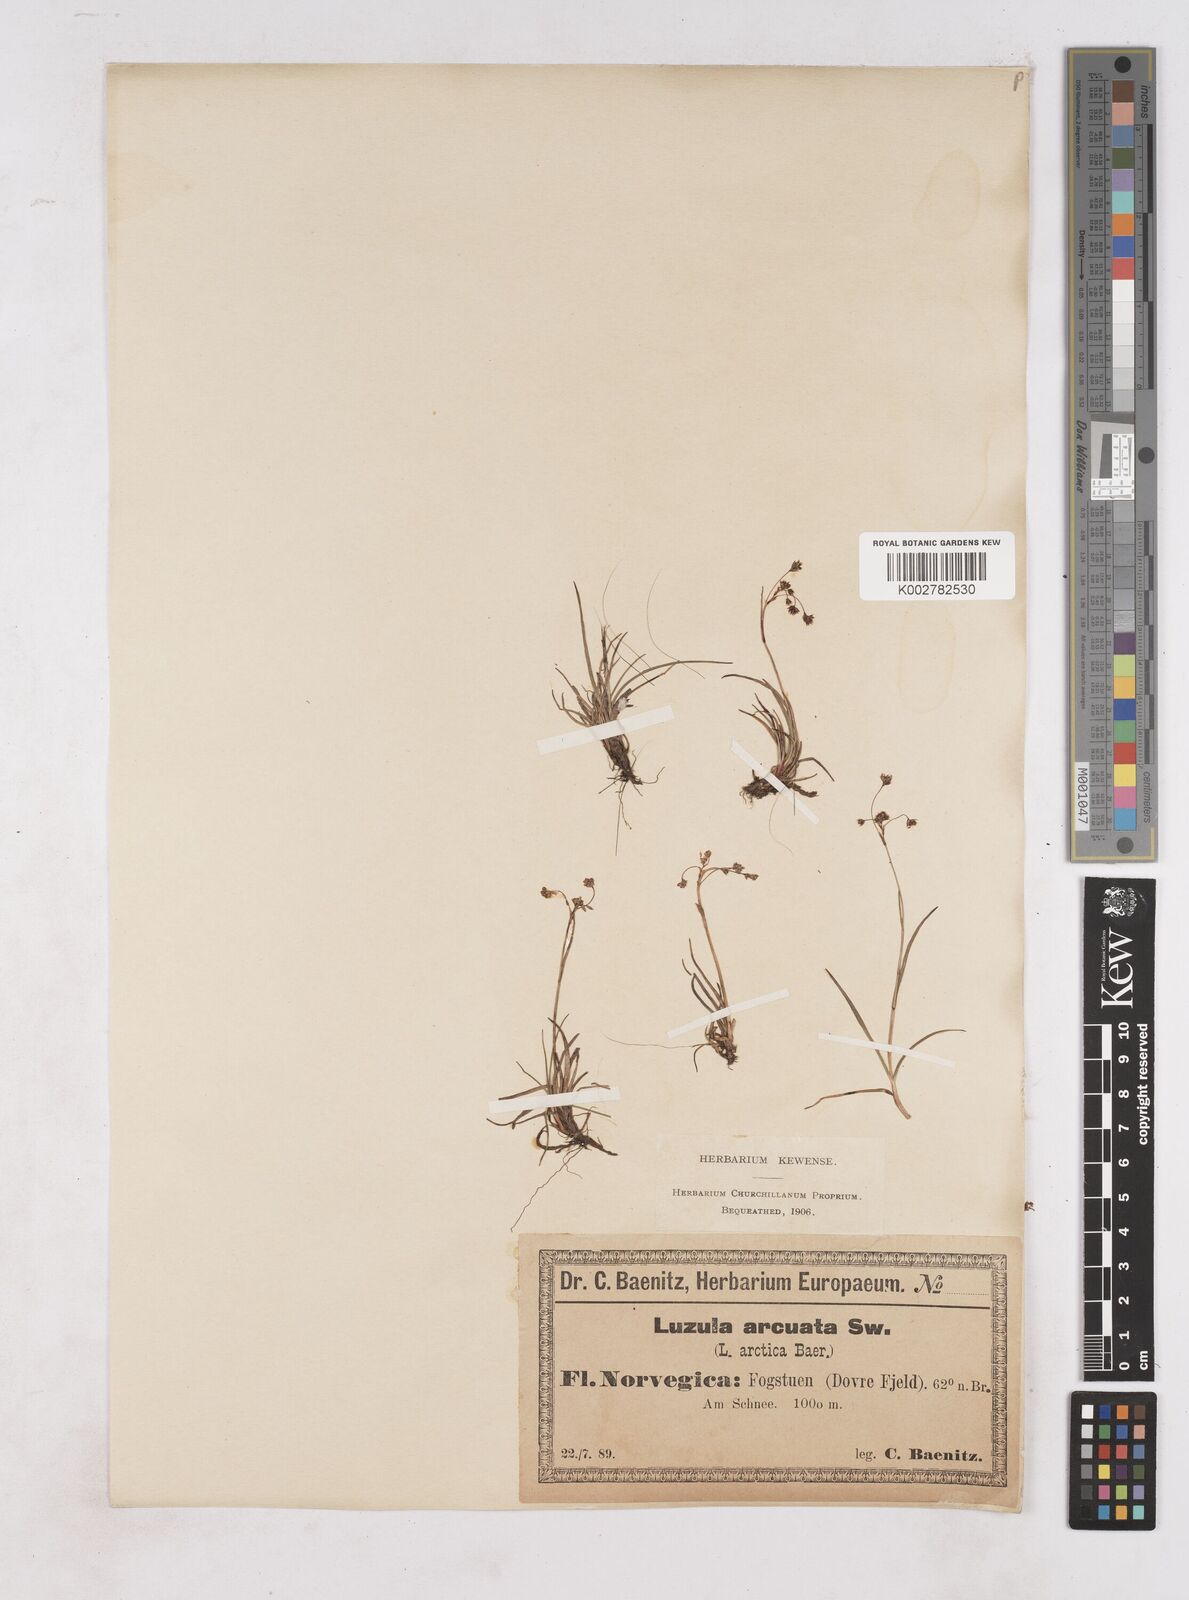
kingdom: Plantae
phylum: Tracheophyta
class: Liliopsida
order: Poales
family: Juncaceae
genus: Luzula
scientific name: Luzula arcuata
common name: Curved wood-rush
